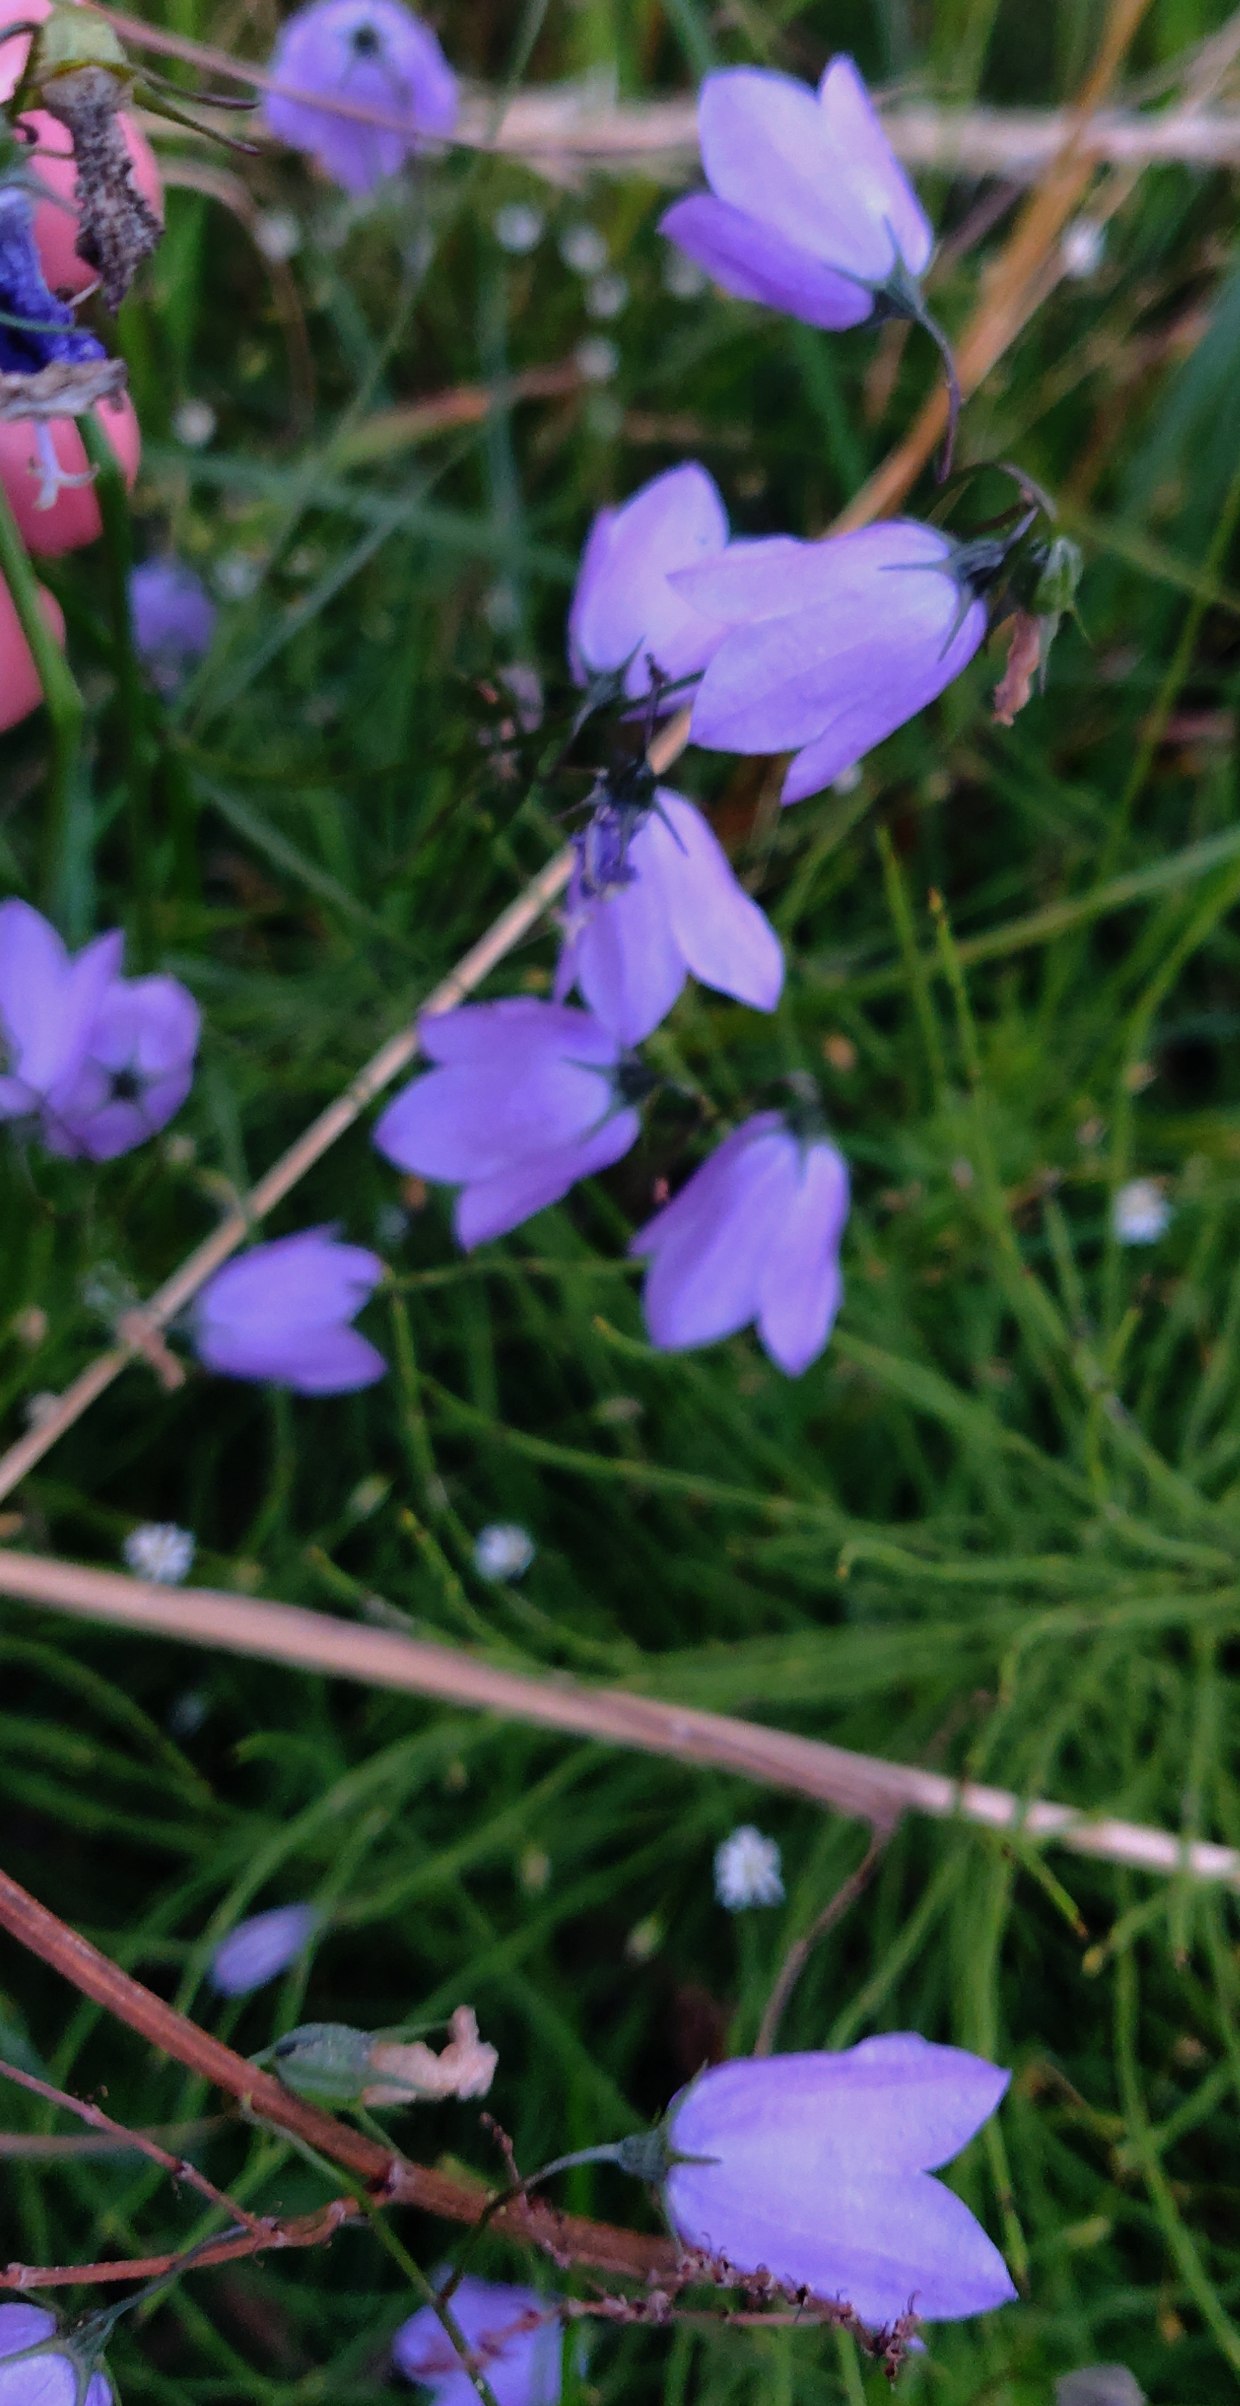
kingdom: Plantae
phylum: Tracheophyta
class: Magnoliopsida
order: Asterales
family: Campanulaceae
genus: Campanula
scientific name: Campanula rotundifolia
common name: Liden klokke
